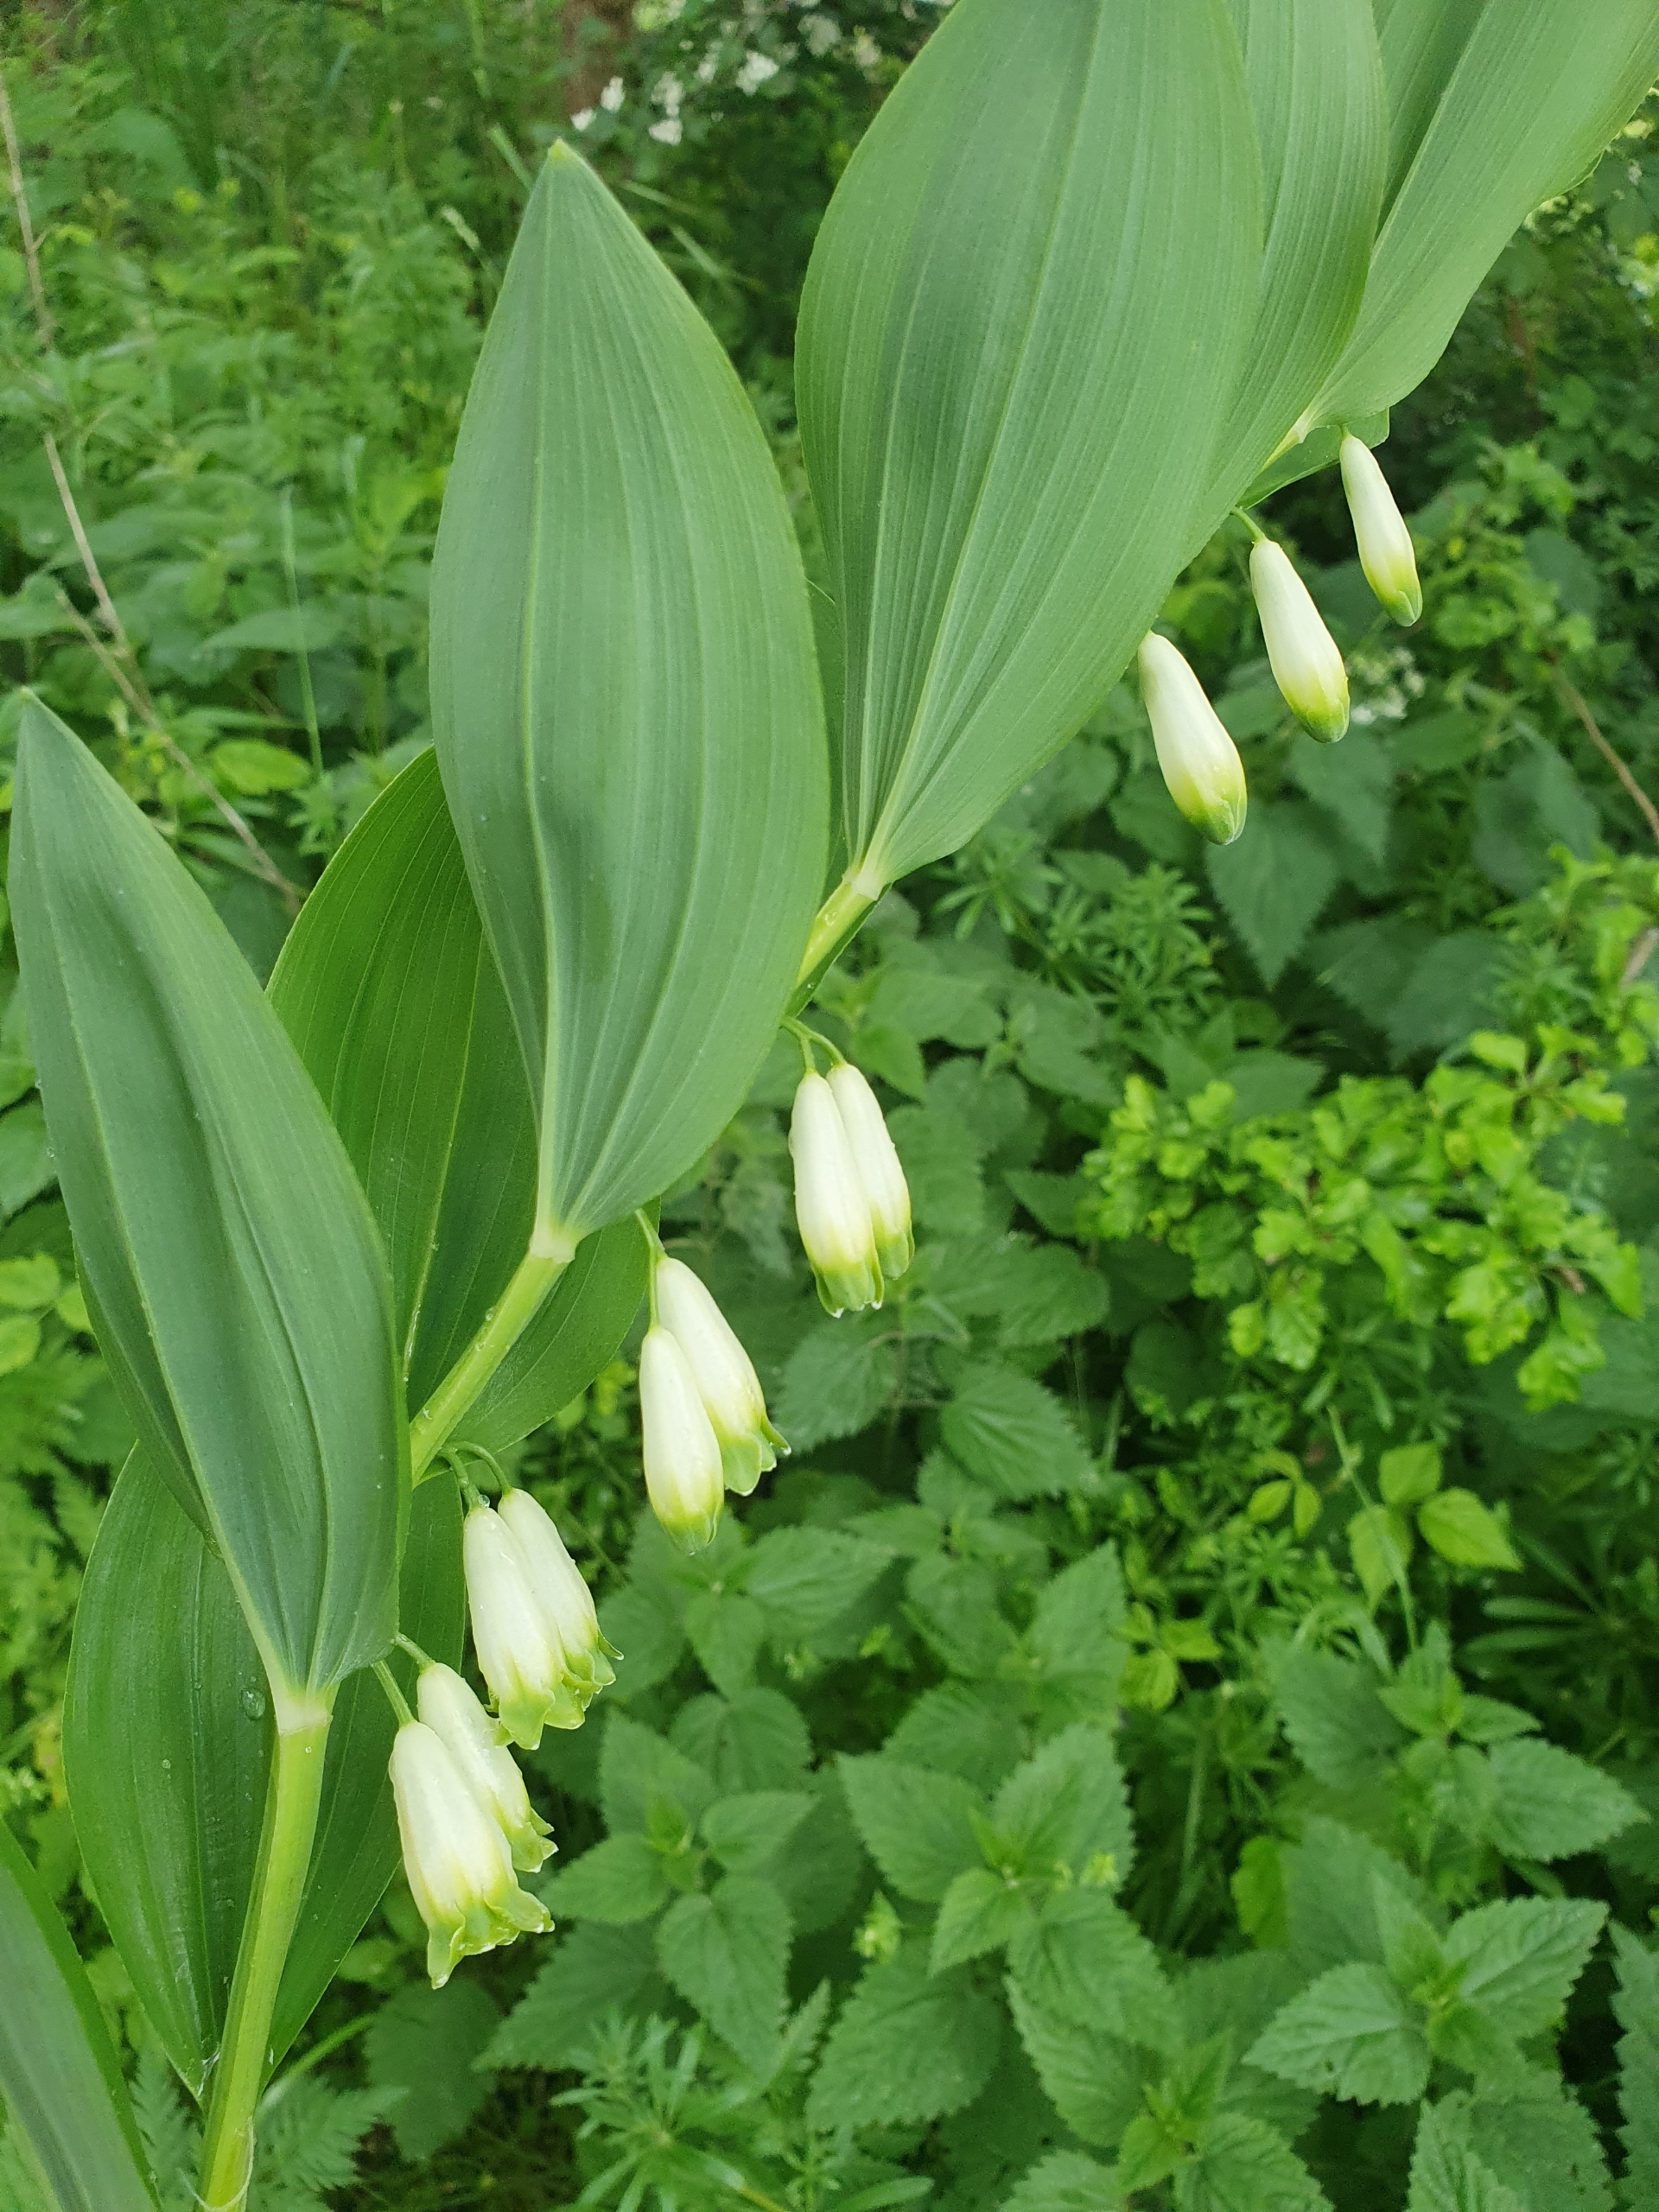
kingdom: Plantae
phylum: Tracheophyta
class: Liliopsida
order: Asparagales
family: Asparagaceae
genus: Polygonatum
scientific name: Polygonatum odoratum
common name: Kantet konval
